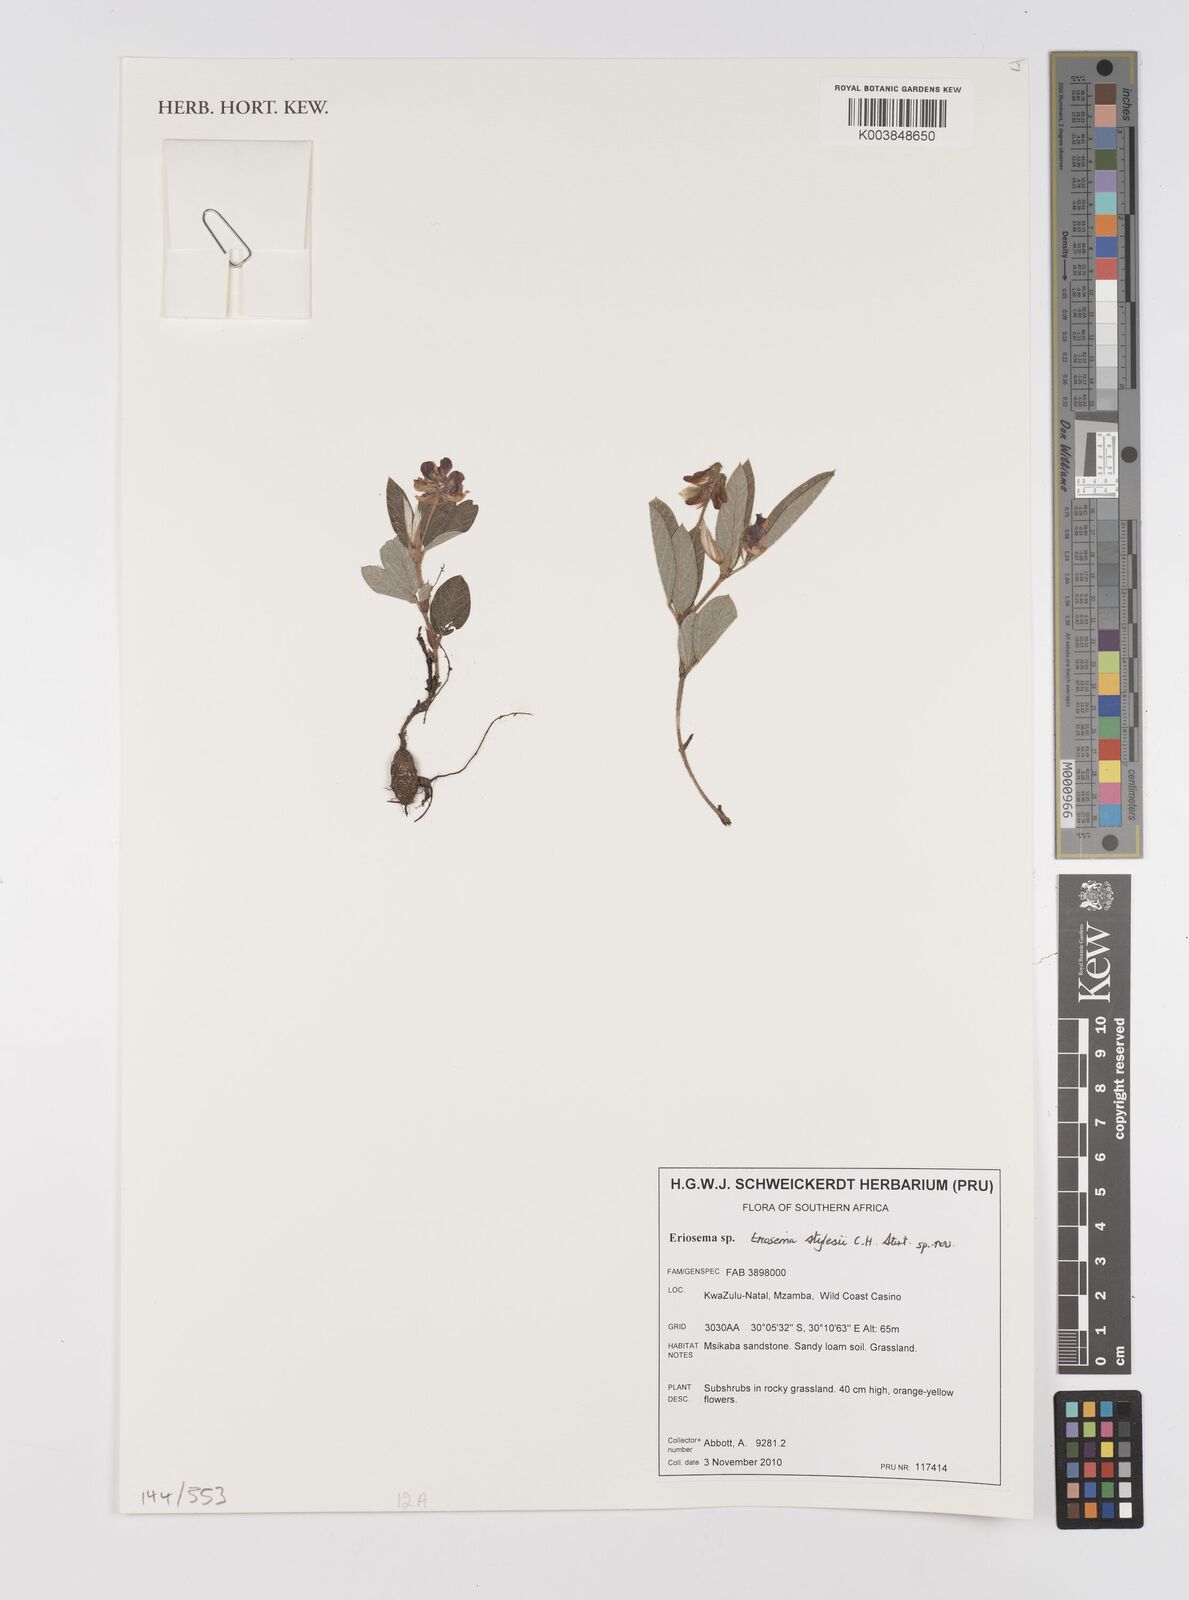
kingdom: Plantae
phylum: Tracheophyta
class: Magnoliopsida
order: Fabales
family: Fabaceae
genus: Eriosema
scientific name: Eriosema
